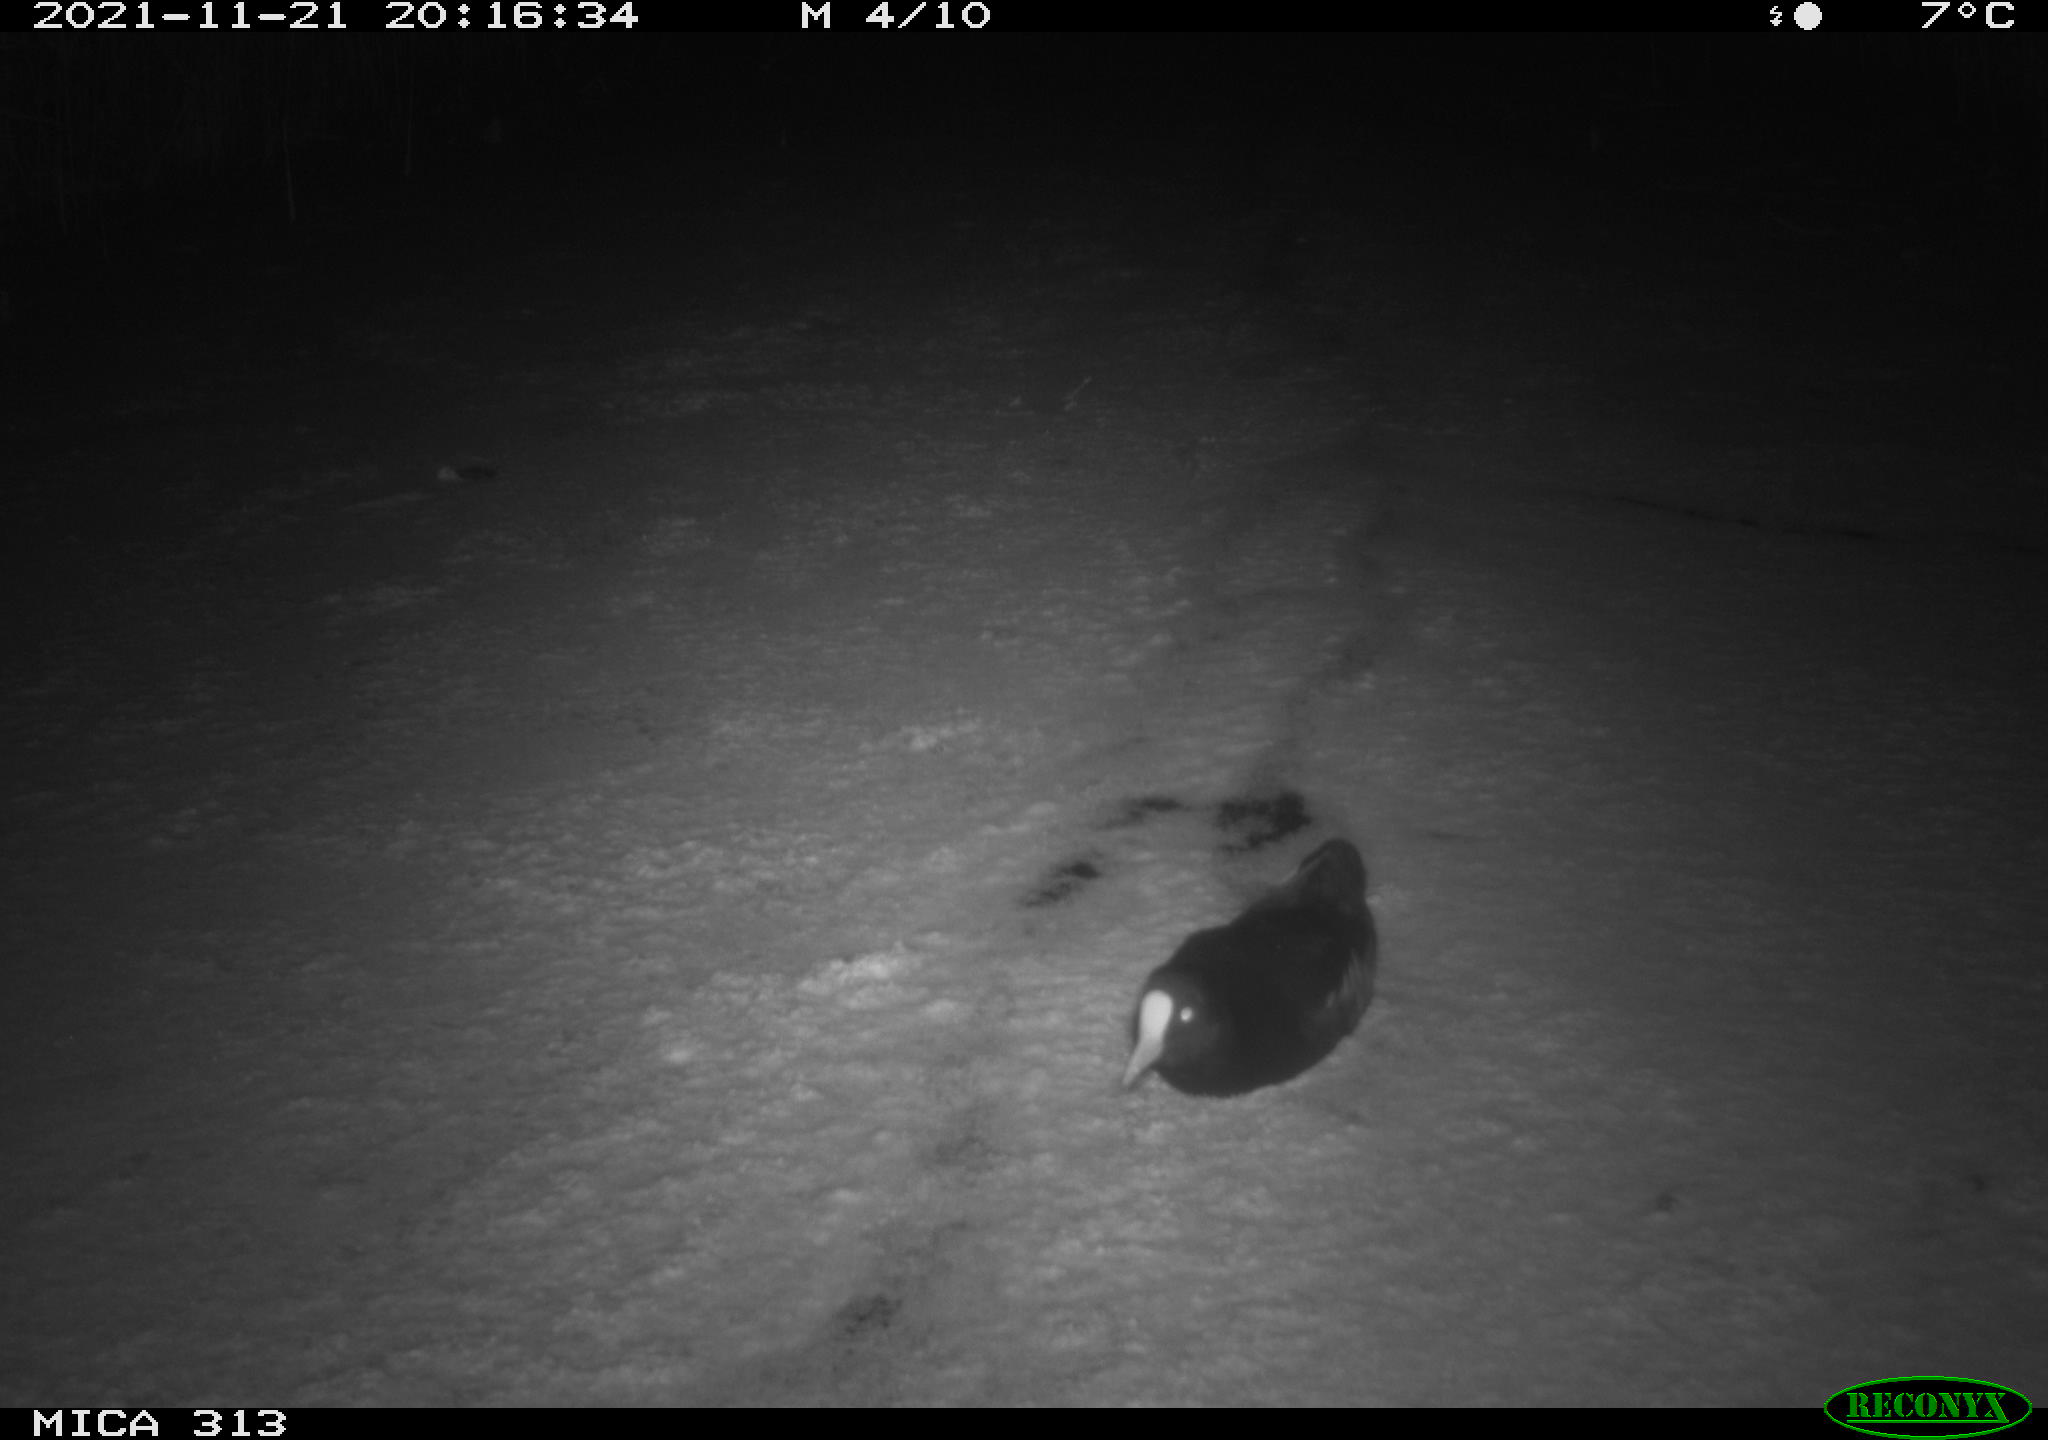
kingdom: Animalia
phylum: Chordata
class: Aves
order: Gruiformes
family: Rallidae
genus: Fulica
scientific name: Fulica atra
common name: Eurasian coot
